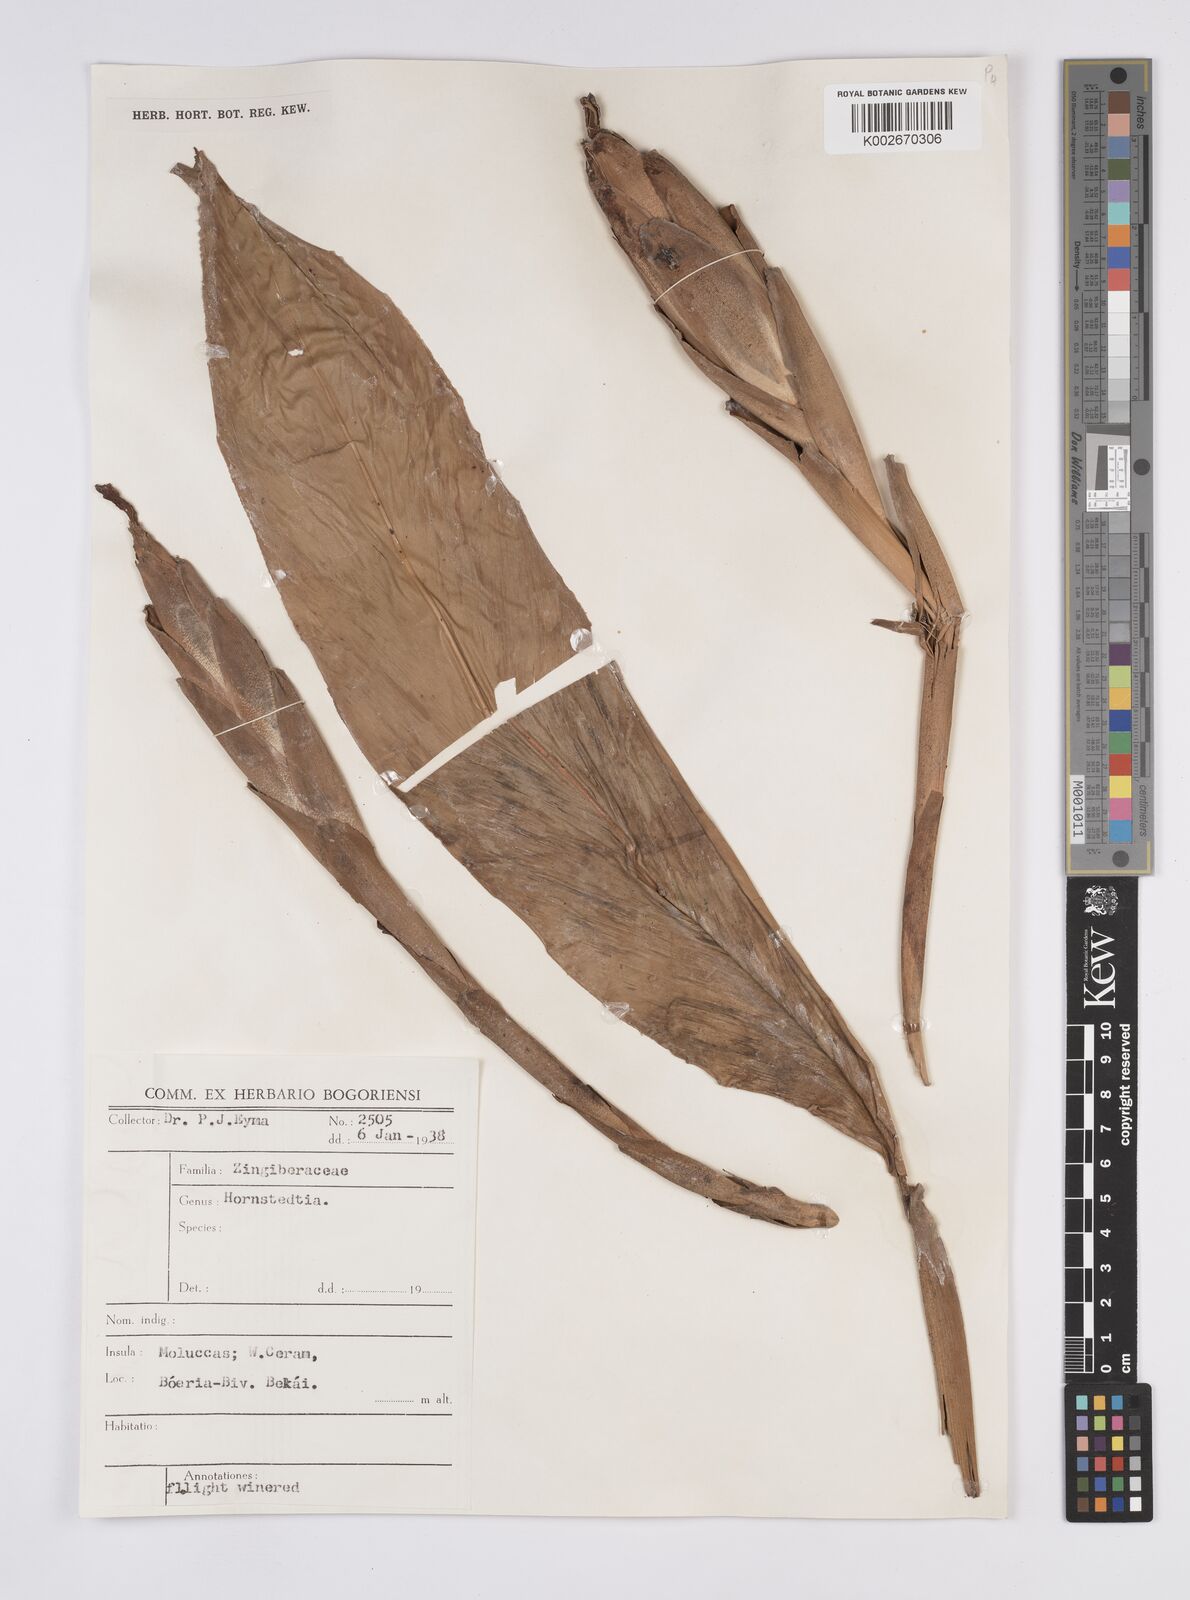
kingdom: Plantae
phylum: Tracheophyta
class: Liliopsida
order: Zingiberales
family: Zingiberaceae
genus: Hornstedtia
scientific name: Hornstedtia
